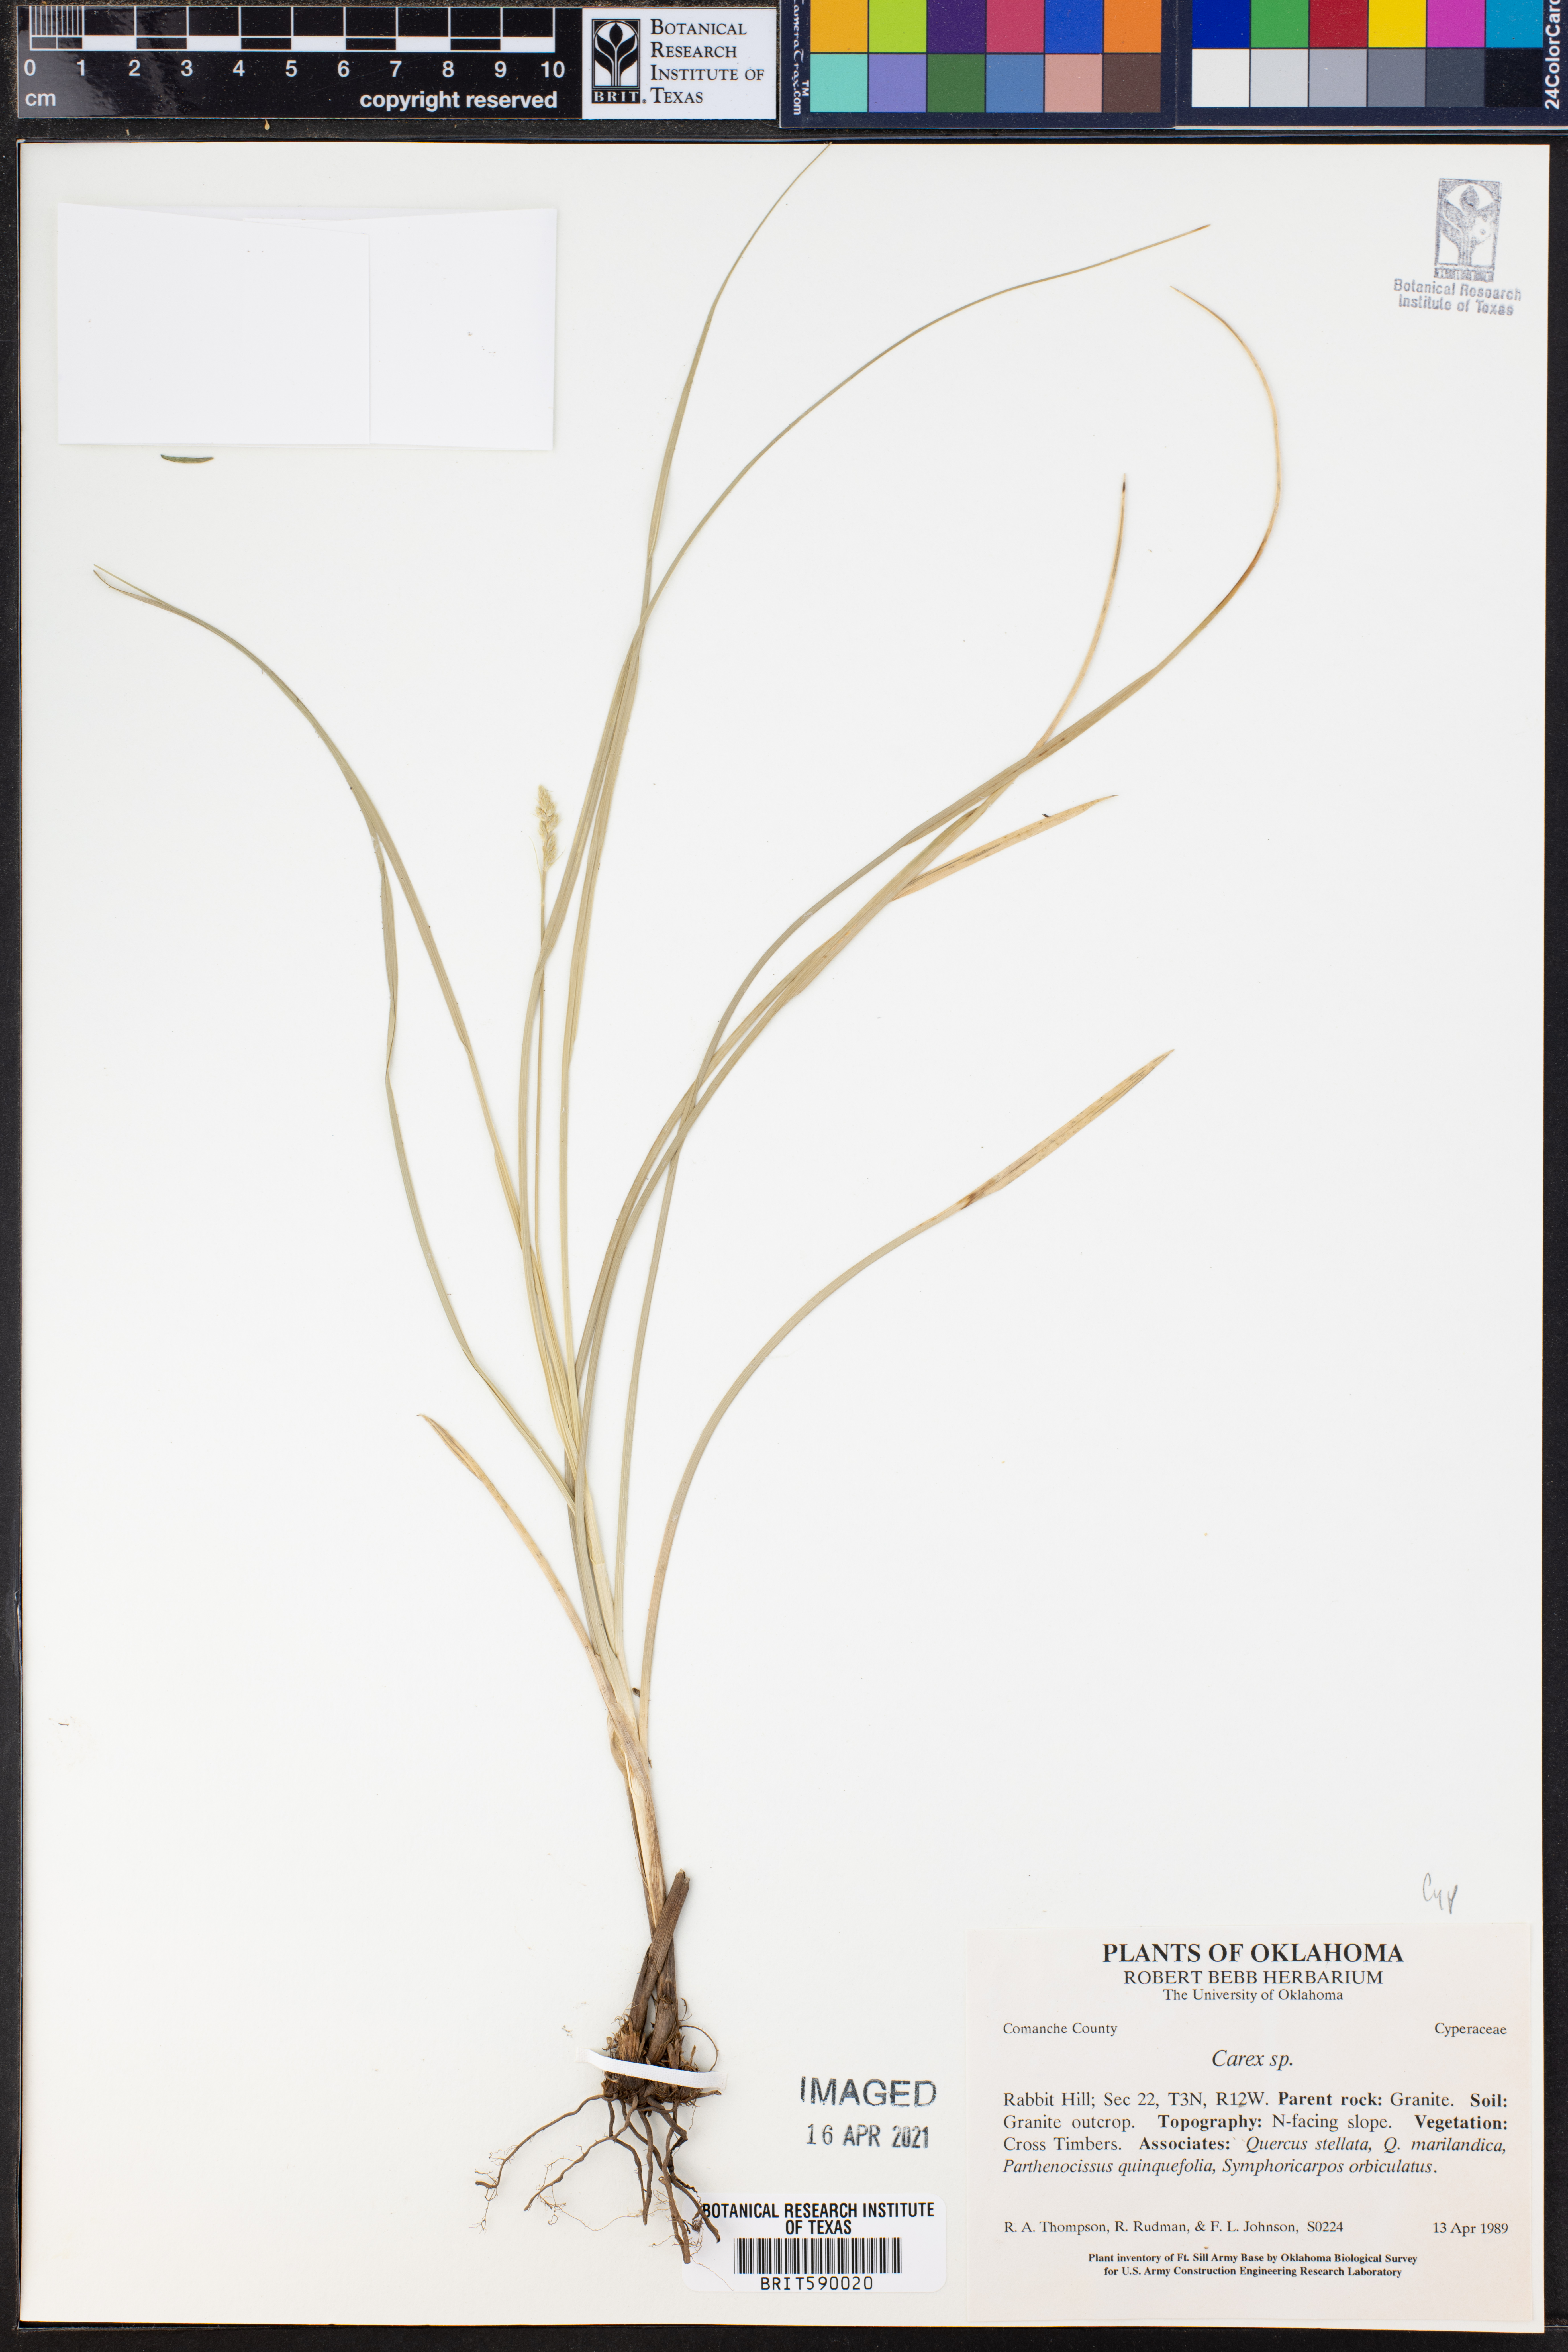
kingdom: Plantae
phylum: Tracheophyta
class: Liliopsida
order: Poales
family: Cyperaceae
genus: Carex
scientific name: Carex
